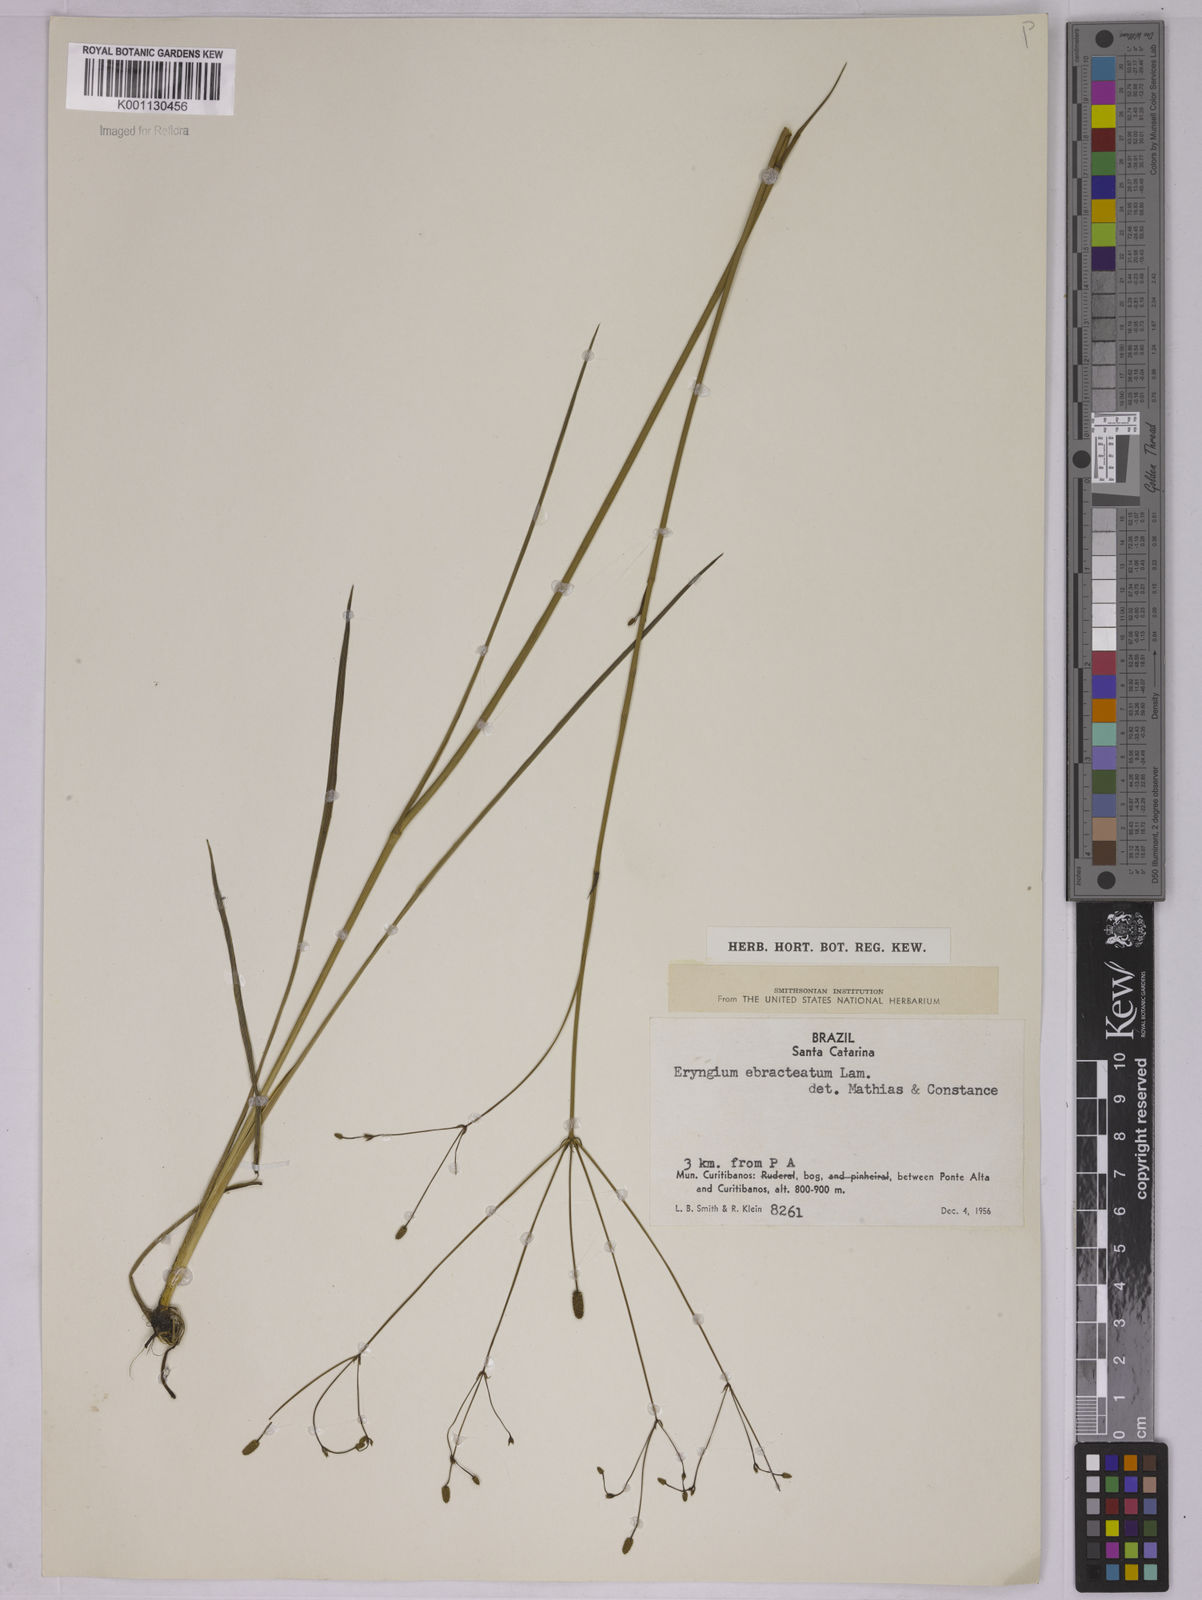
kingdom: Plantae
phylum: Tracheophyta
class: Magnoliopsida
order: Apiales
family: Apiaceae
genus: Eryngium
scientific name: Eryngium ebracteatum
